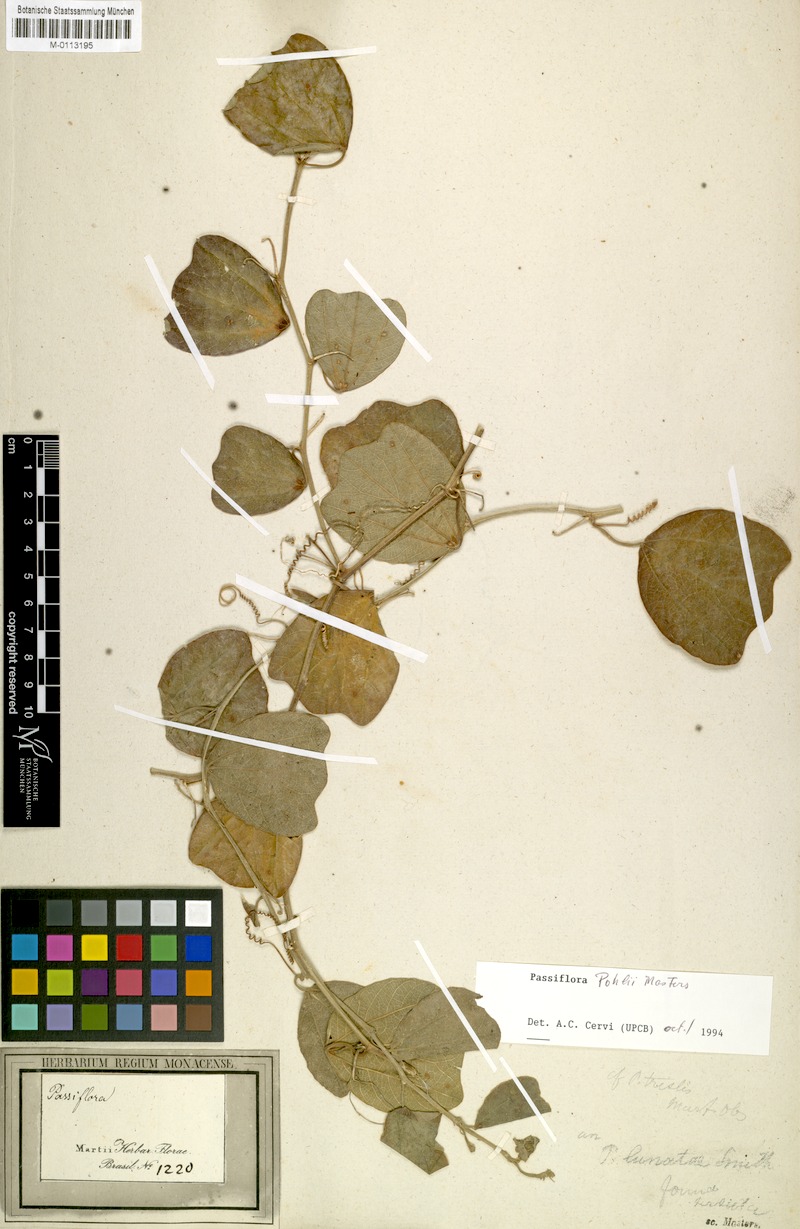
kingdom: Plantae
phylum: Tracheophyta
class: Magnoliopsida
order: Malpighiales
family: Passifloraceae
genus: Passiflora
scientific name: Passiflora pohlii
